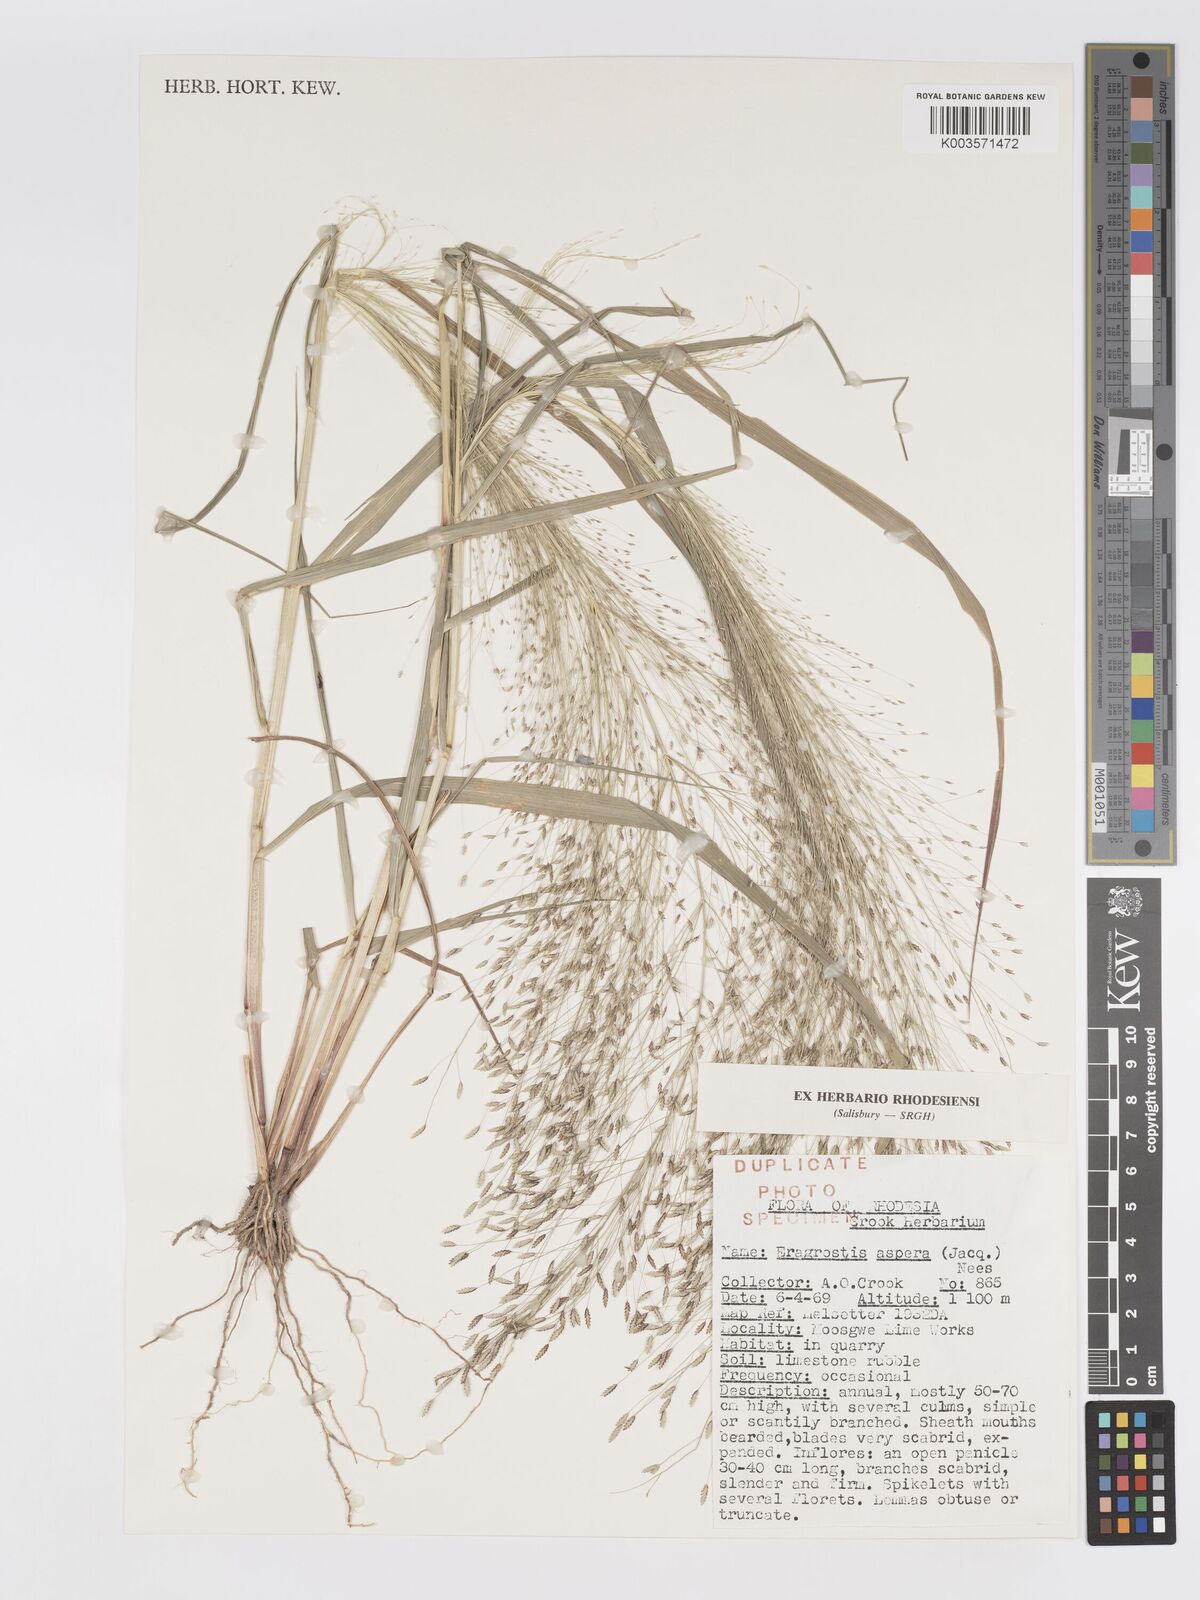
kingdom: Plantae
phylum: Tracheophyta
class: Liliopsida
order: Poales
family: Poaceae
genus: Eragrostis
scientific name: Eragrostis aspera
